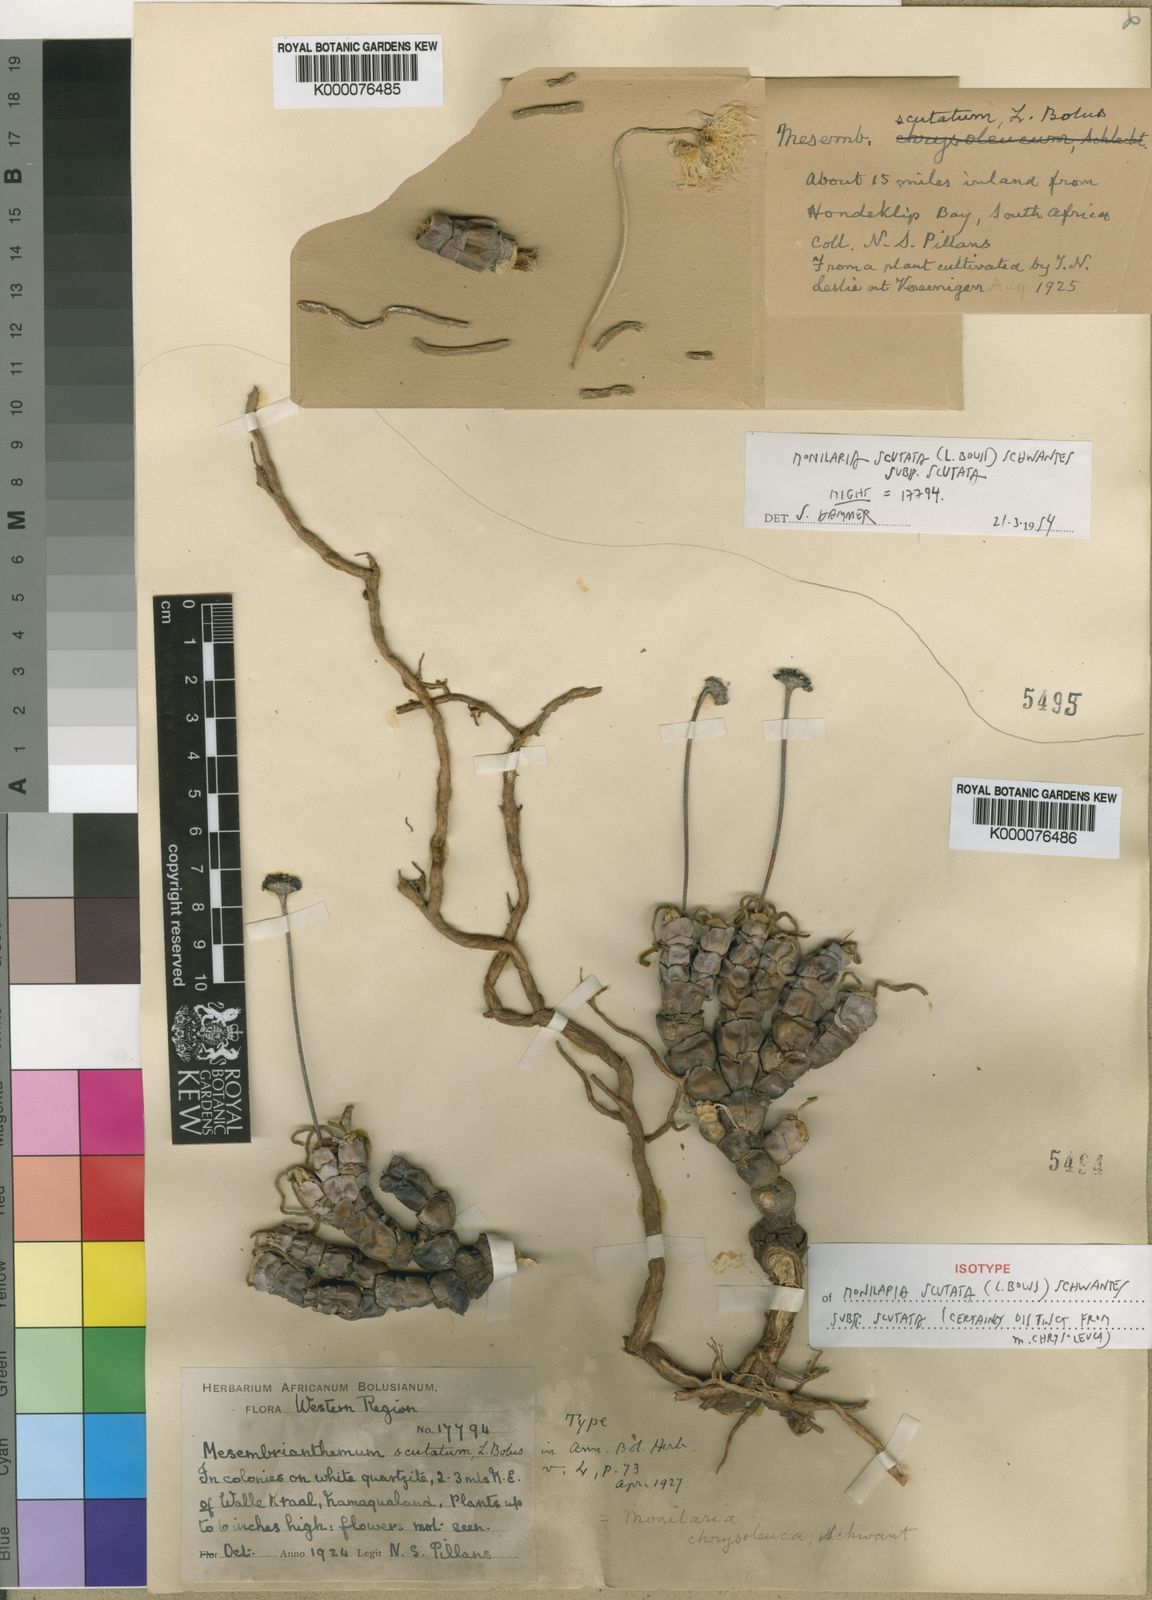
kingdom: Plantae
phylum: Tracheophyta
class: Magnoliopsida
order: Caryophyllales
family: Aizoaceae
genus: Dracophilus
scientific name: Dracophilus Monilaria scutata
